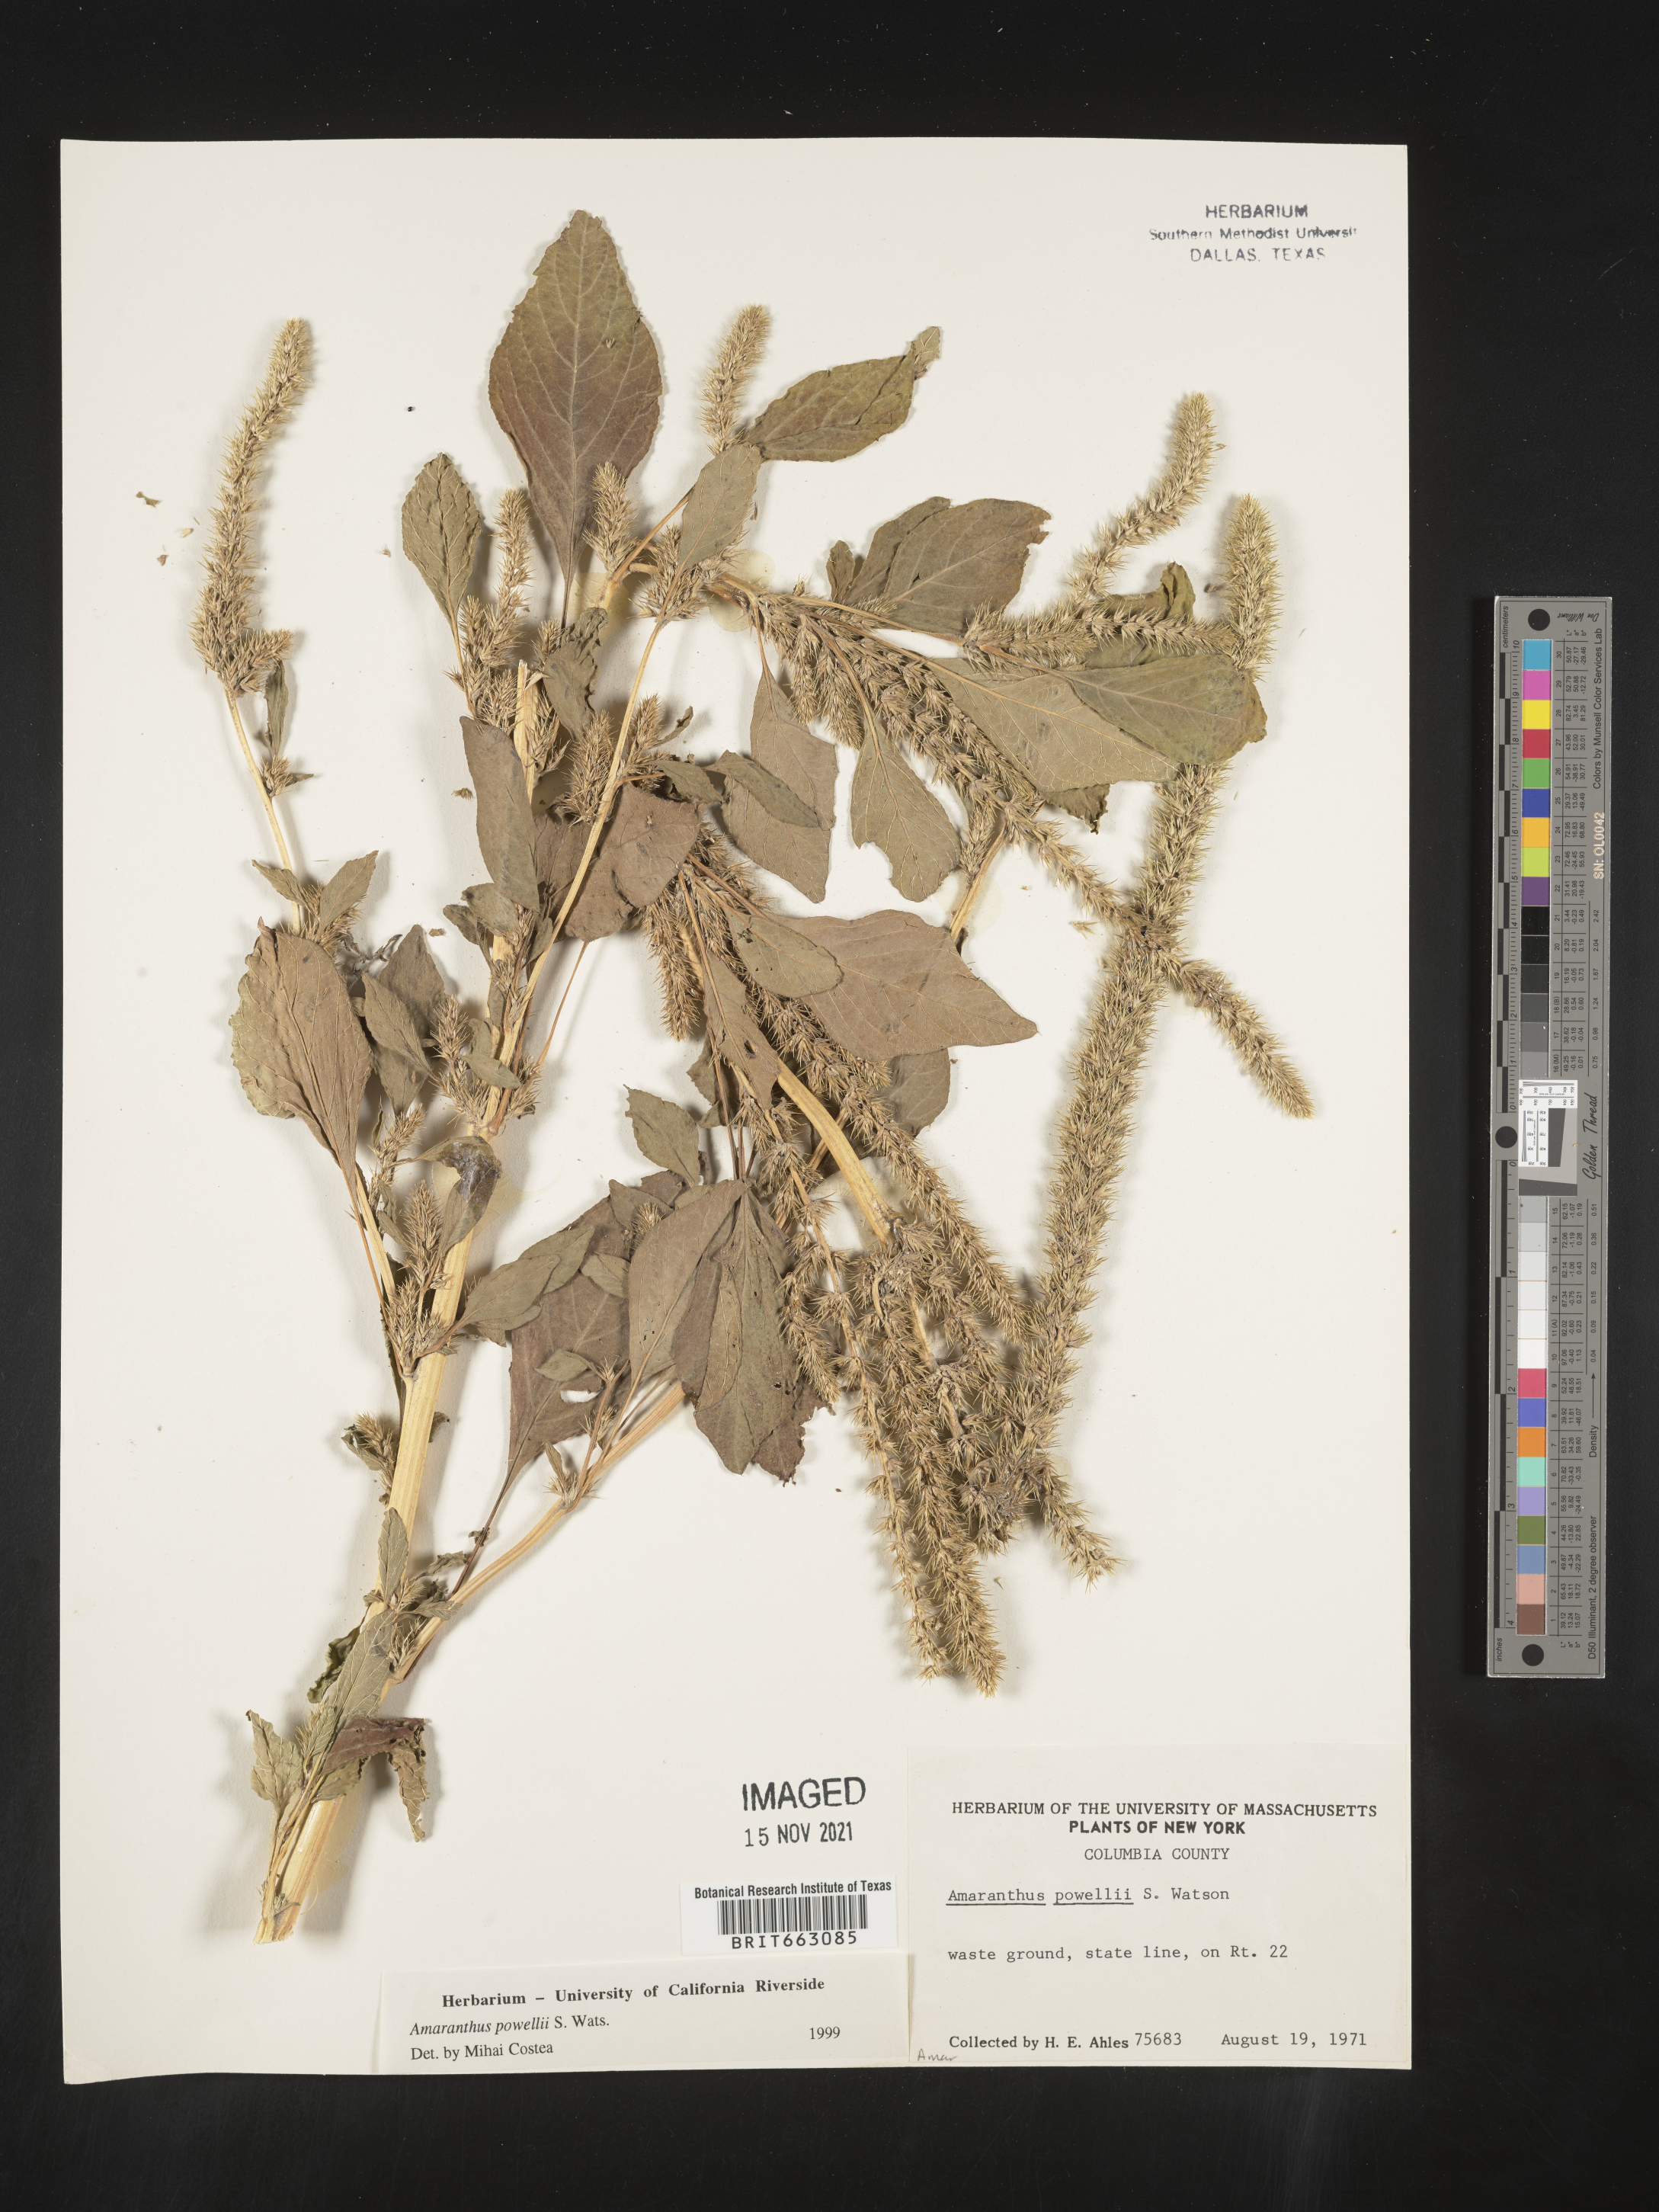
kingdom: Plantae
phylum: Tracheophyta
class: Magnoliopsida
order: Caryophyllales
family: Amaranthaceae
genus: Amaranthus
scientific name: Amaranthus powellii
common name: Powell's amaranth
